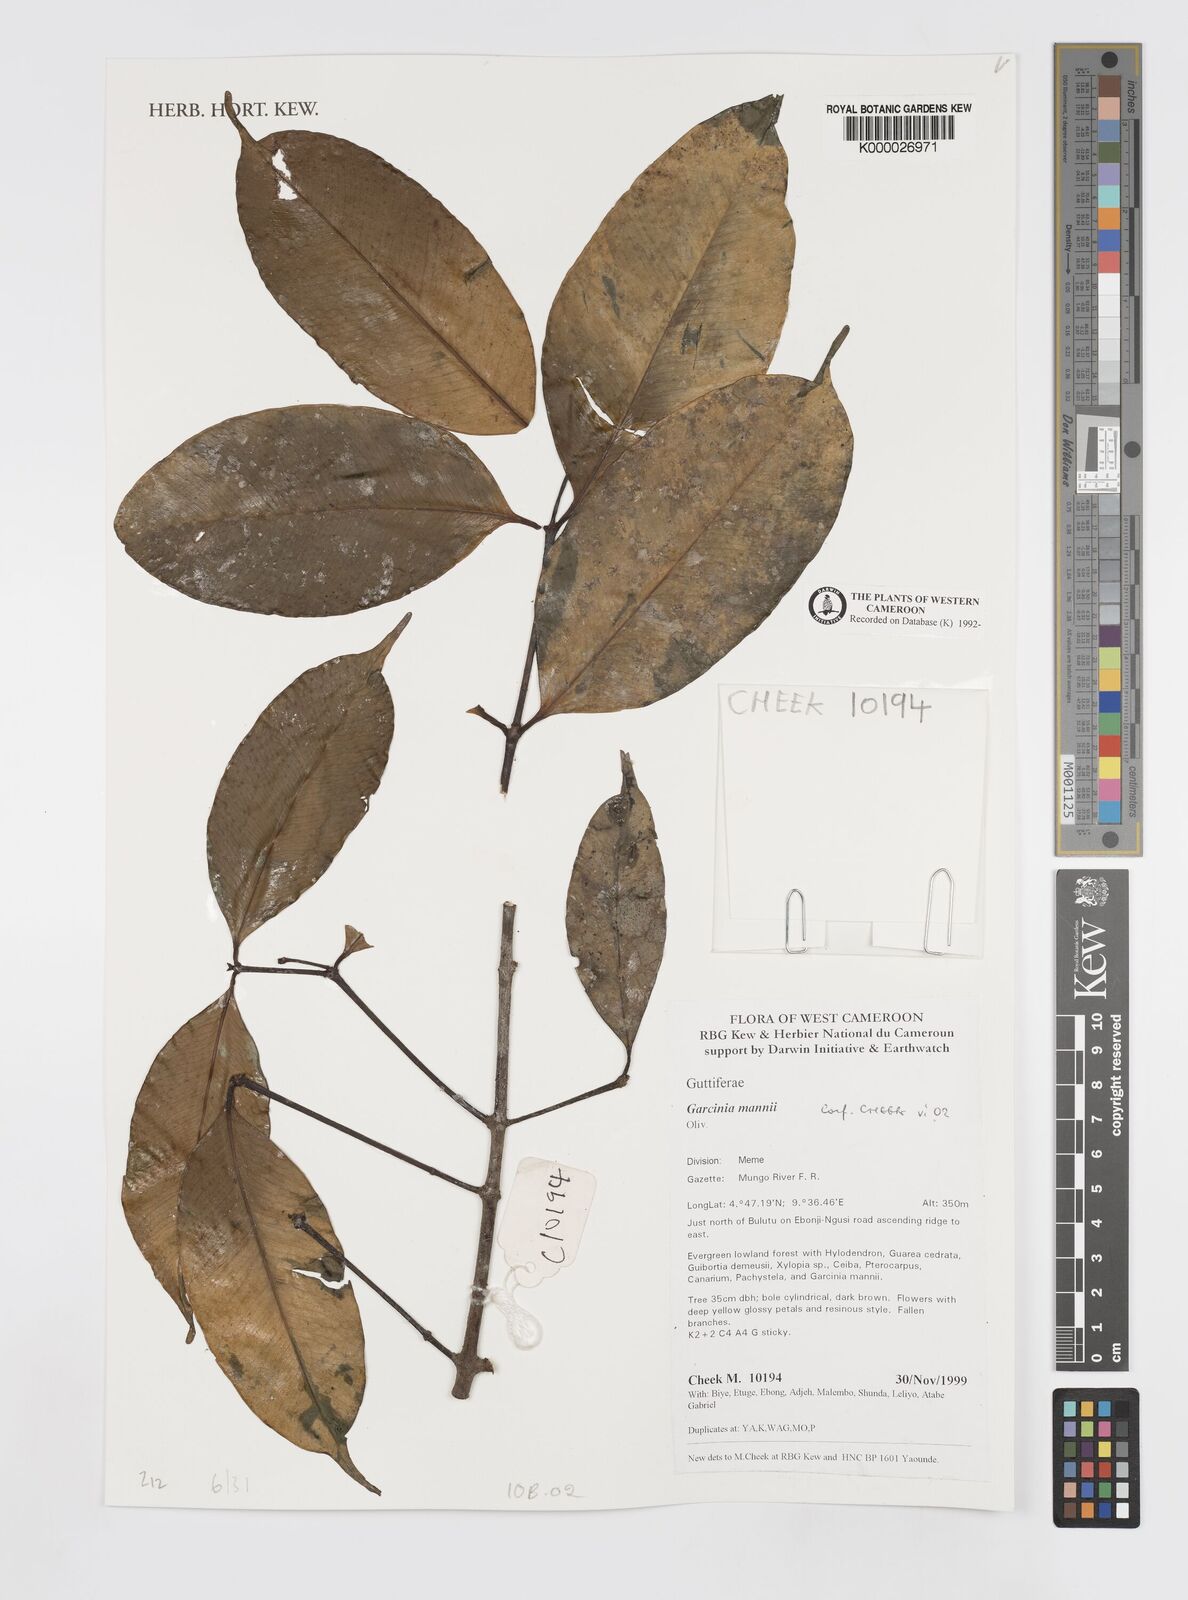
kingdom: Plantae
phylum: Tracheophyta
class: Magnoliopsida
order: Malpighiales
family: Clusiaceae
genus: Garcinia
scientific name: Garcinia mannii
